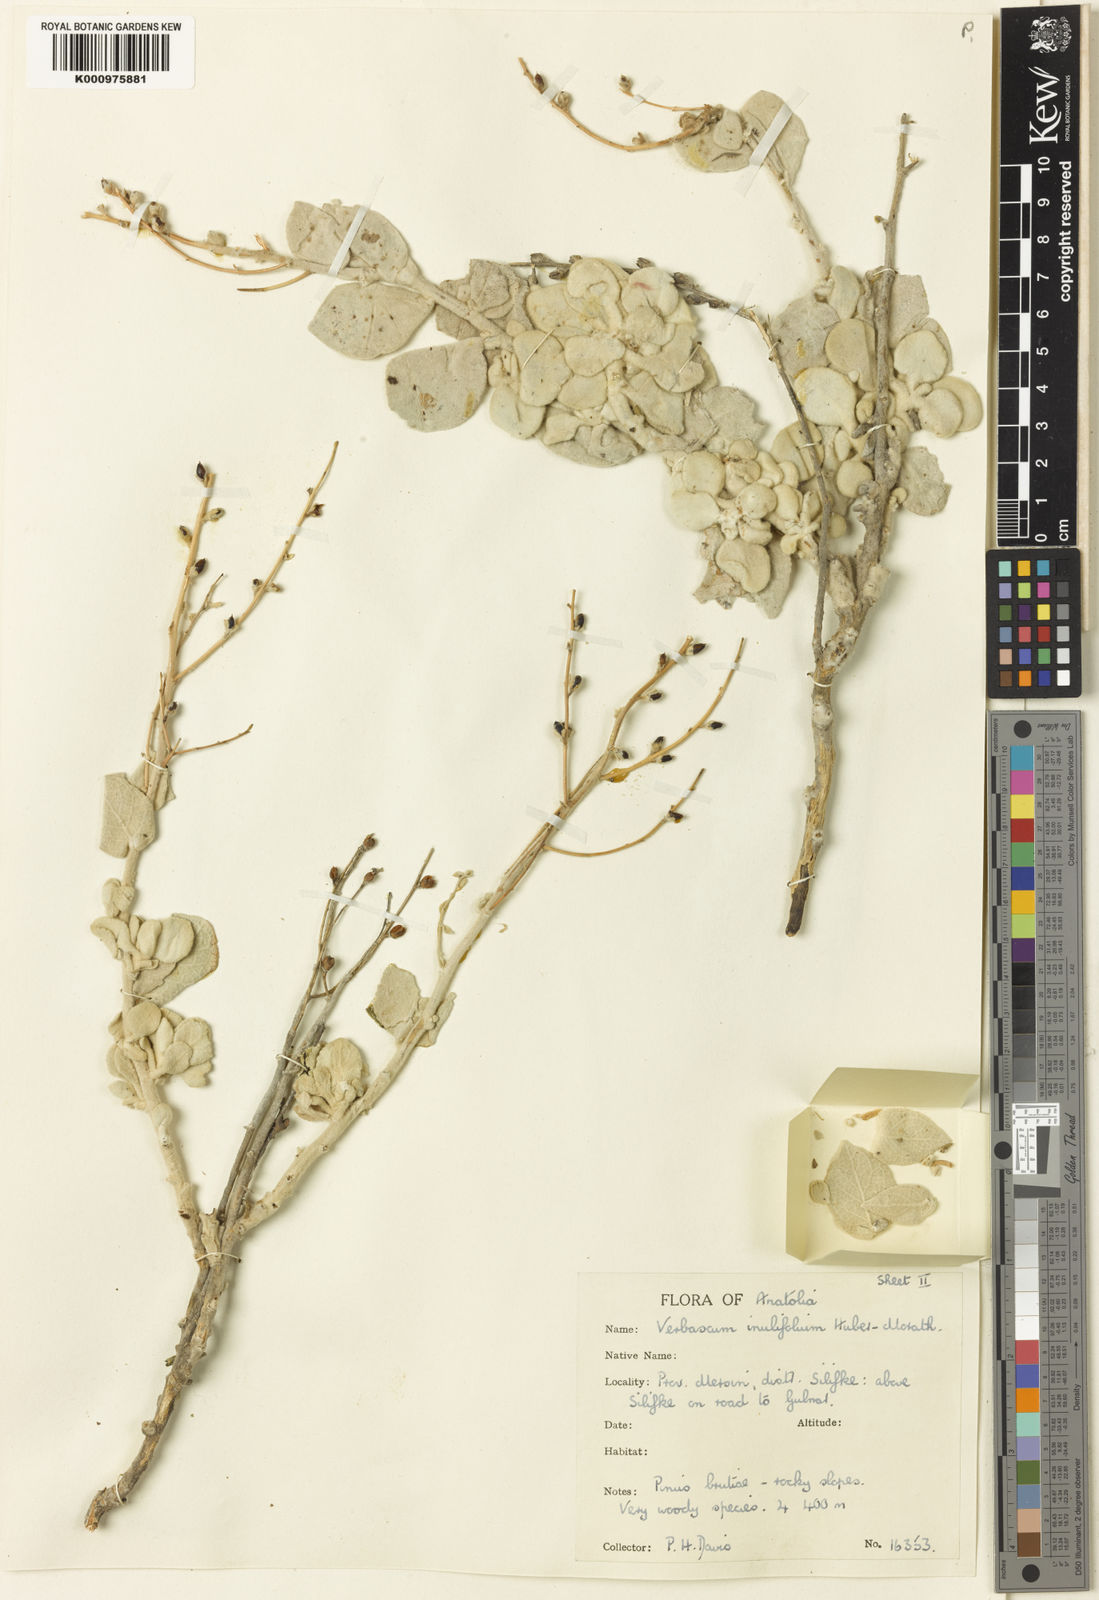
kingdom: Plantae
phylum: Tracheophyta
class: Magnoliopsida
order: Lamiales
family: Scrophulariaceae
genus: Verbascum
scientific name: Verbascum inulifolium
